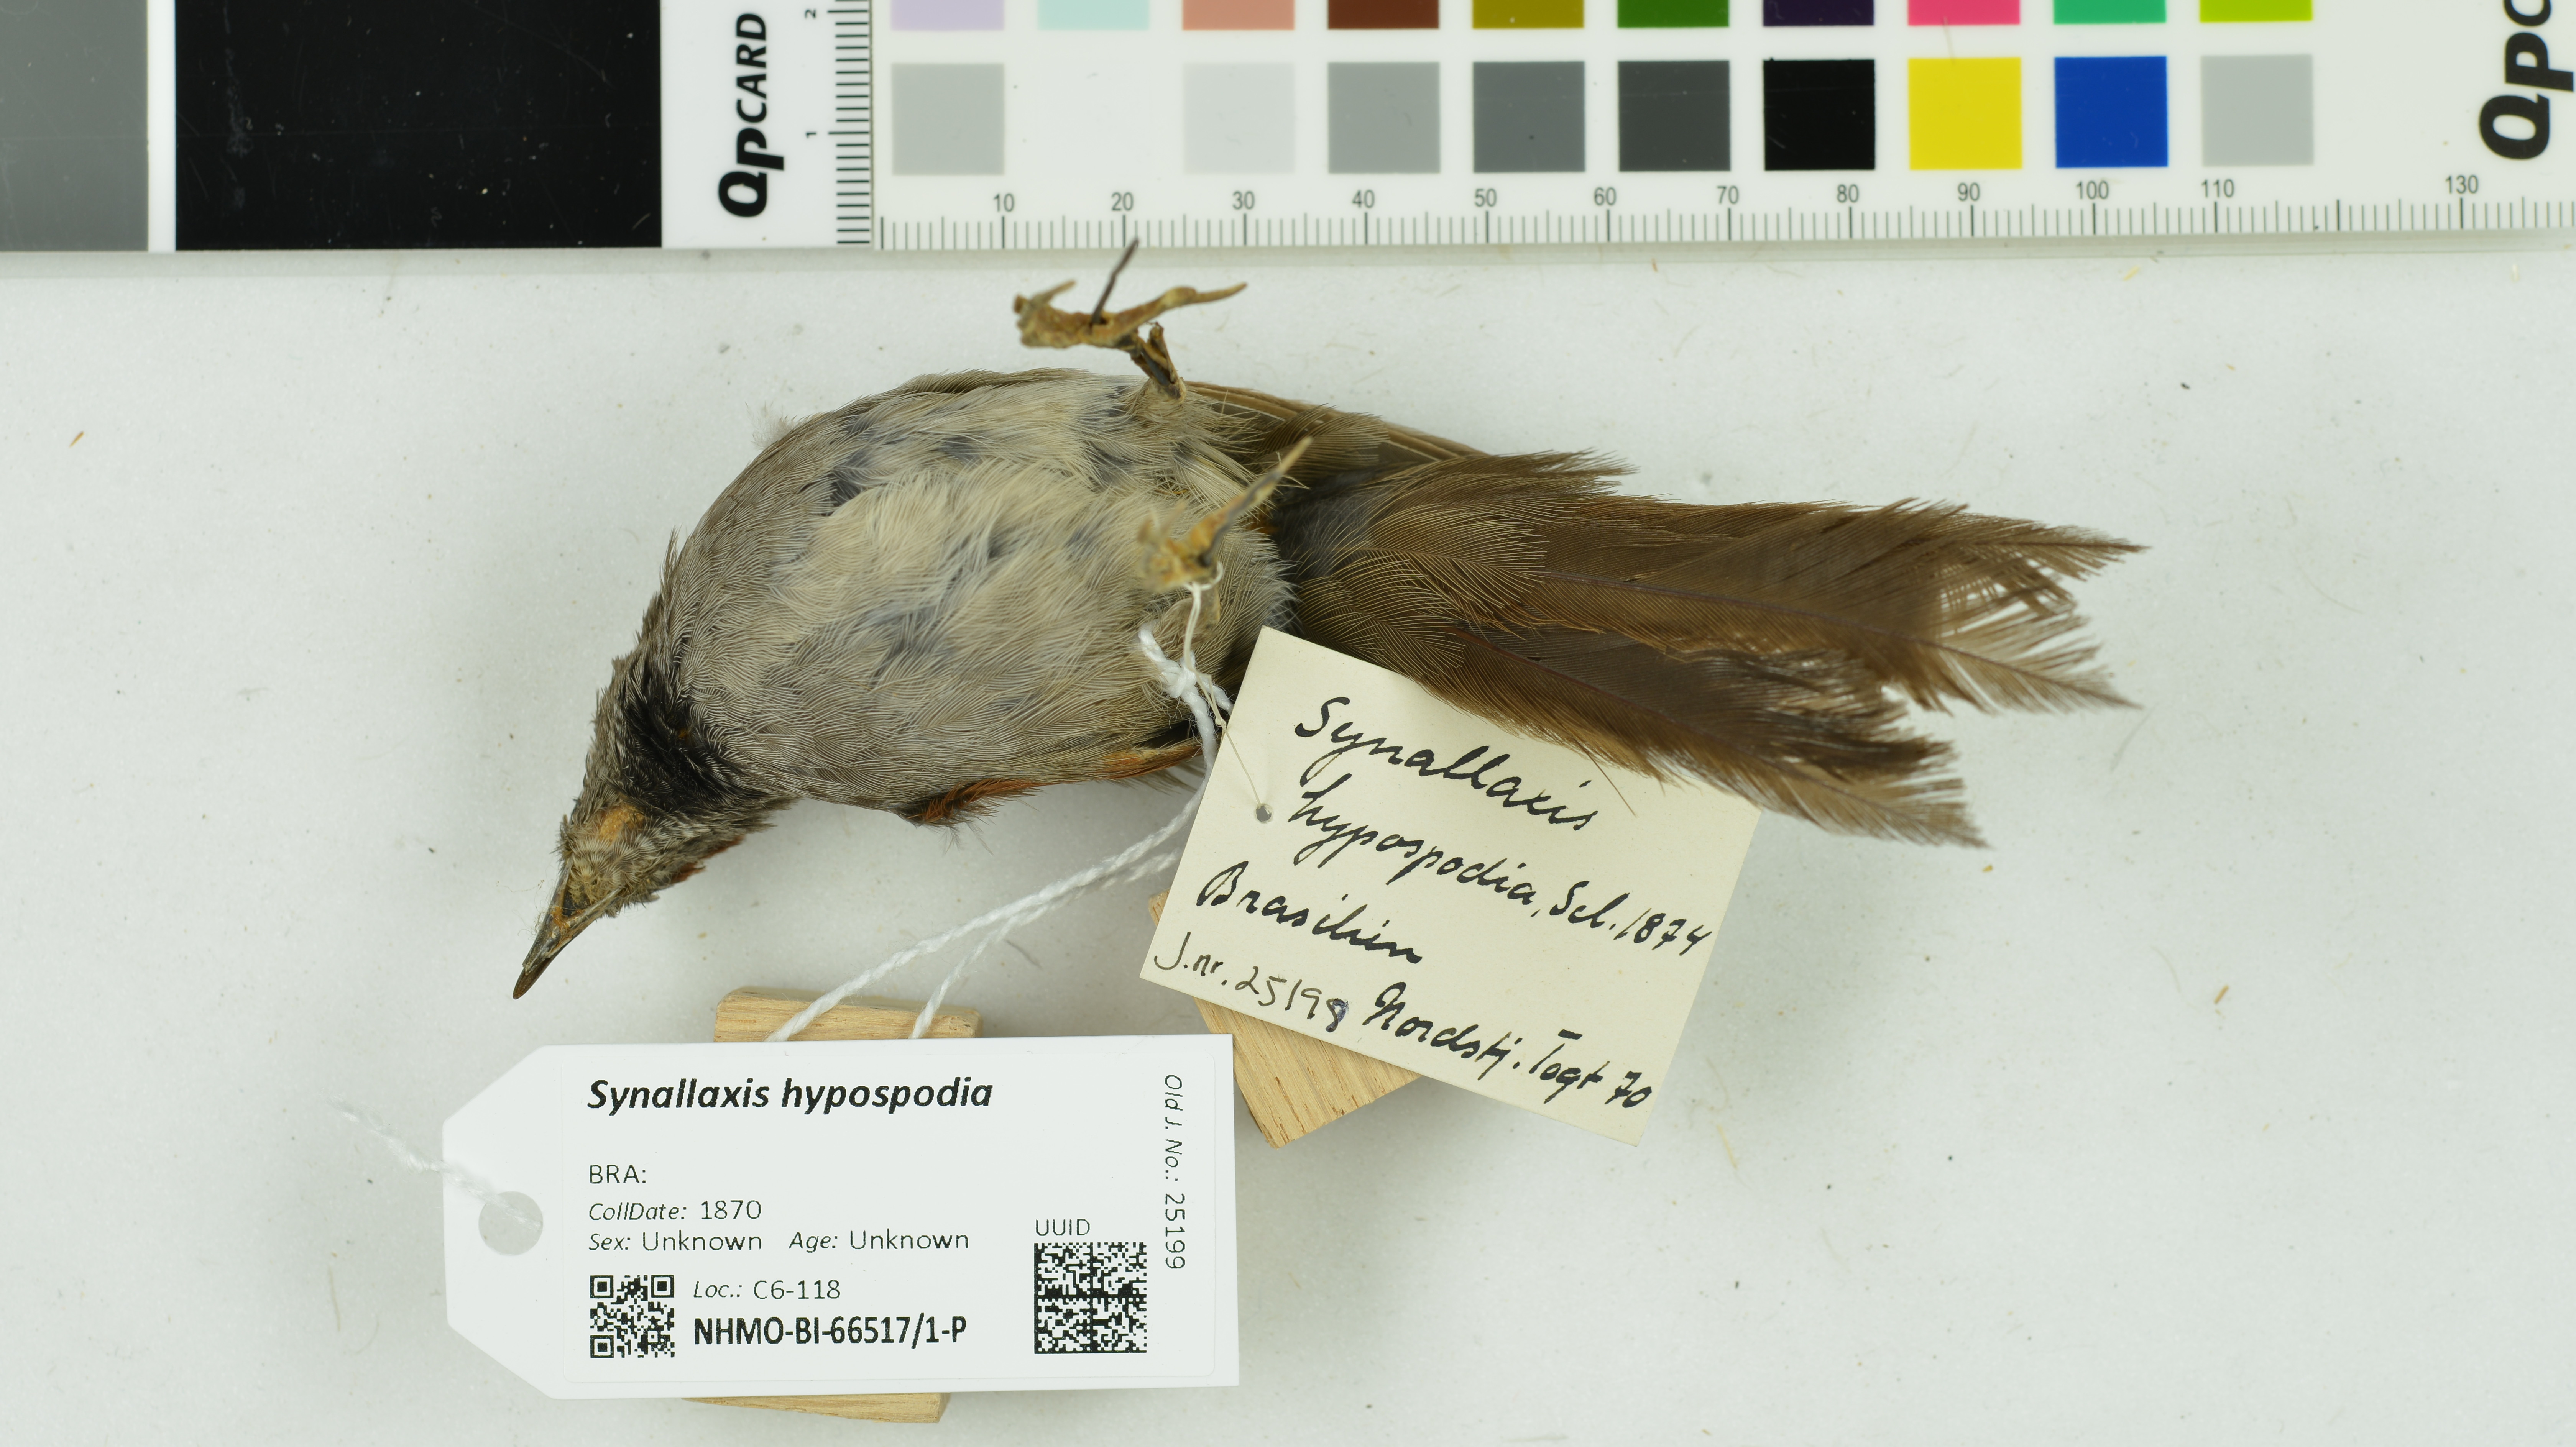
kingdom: Animalia
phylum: Chordata
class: Aves
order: Passeriformes
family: Furnariidae
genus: Synallaxis
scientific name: Synallaxis hypospodia
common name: Cinereous-breasted spinetail
